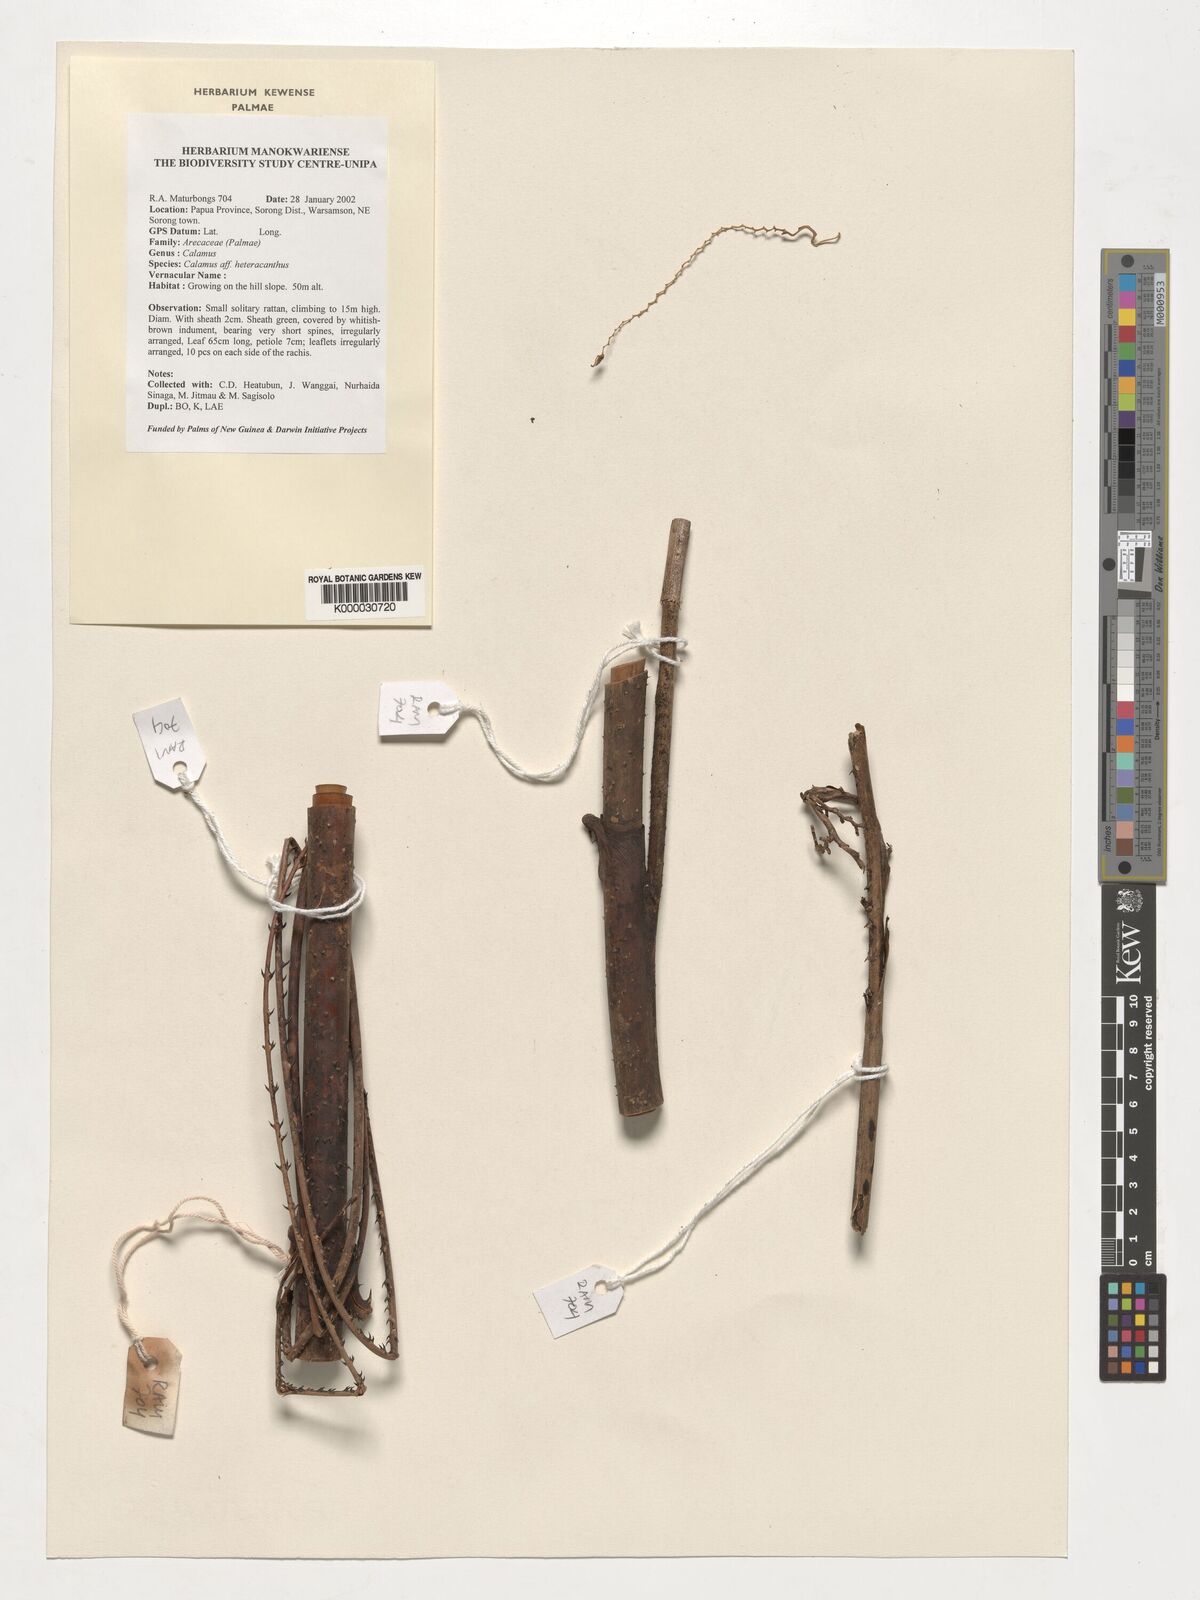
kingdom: Plantae
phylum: Tracheophyta
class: Liliopsida
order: Arecales
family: Arecaceae
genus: Calamus
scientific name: Calamus heteracanthus
